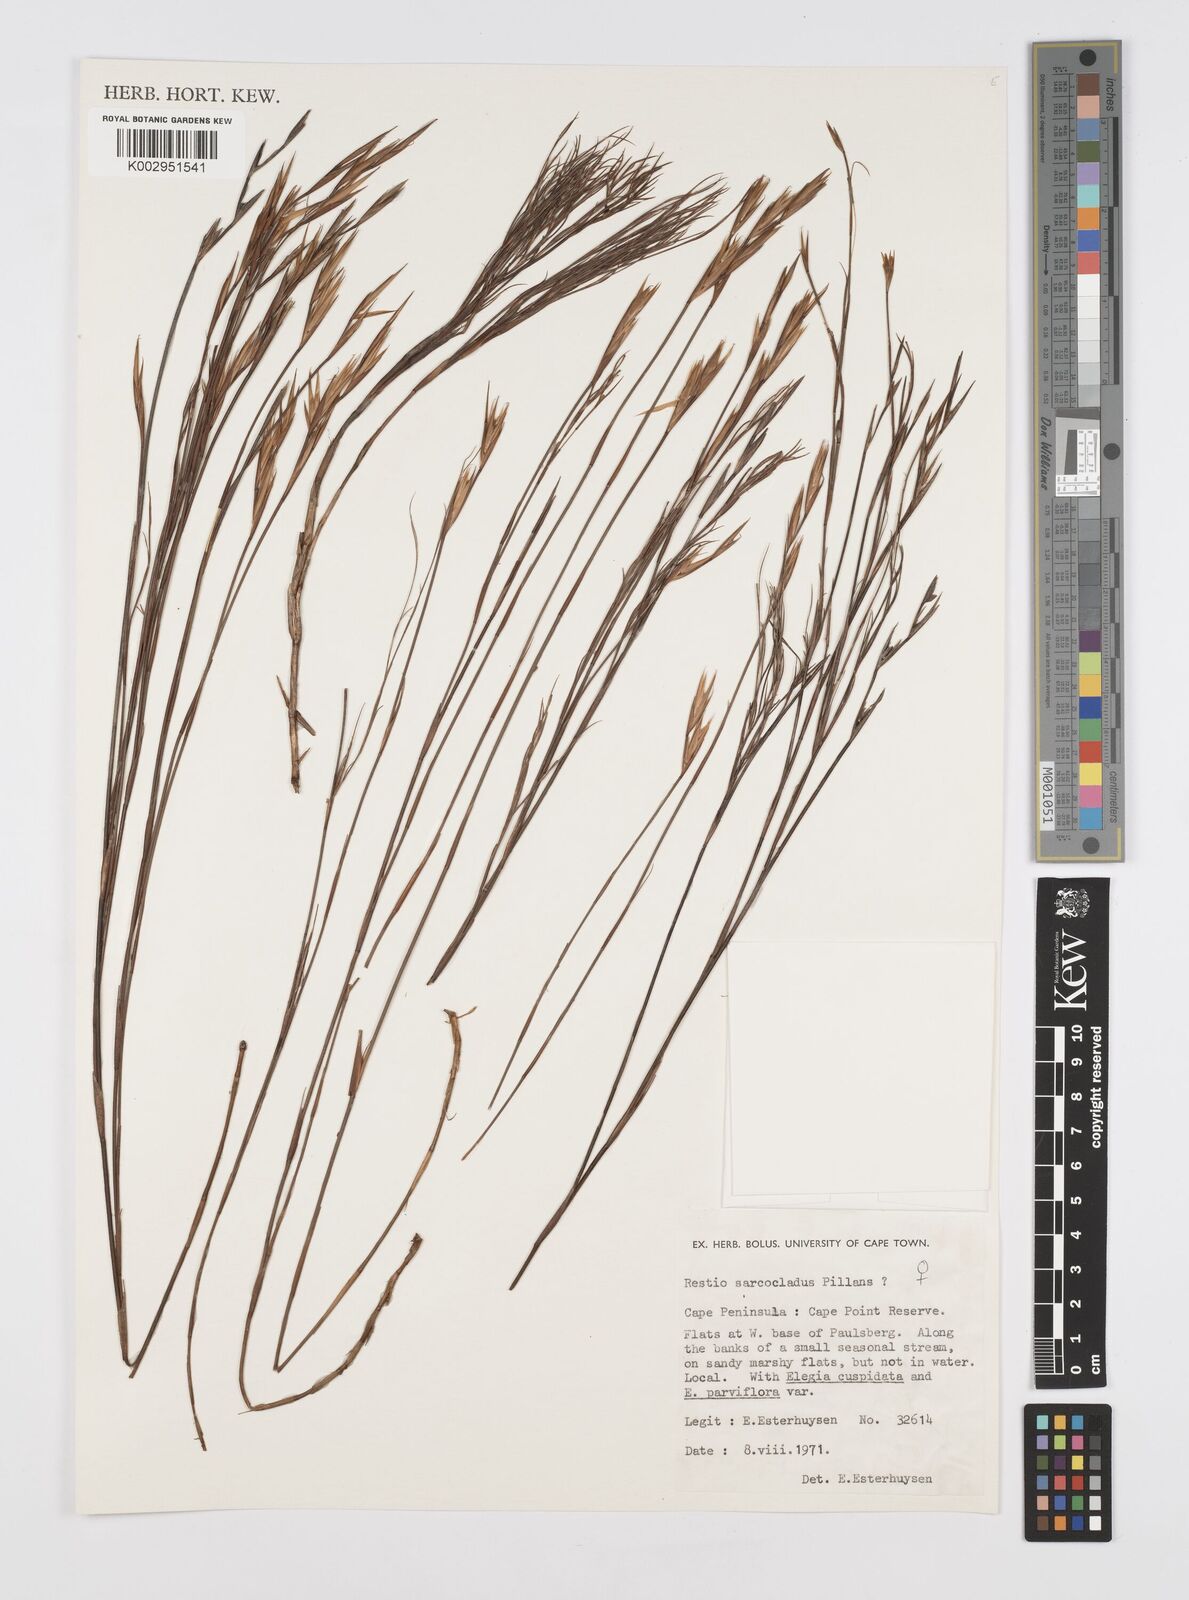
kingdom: Plantae
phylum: Tracheophyta
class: Liliopsida
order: Poales
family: Restionaceae
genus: Restio
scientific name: Restio saroclados
